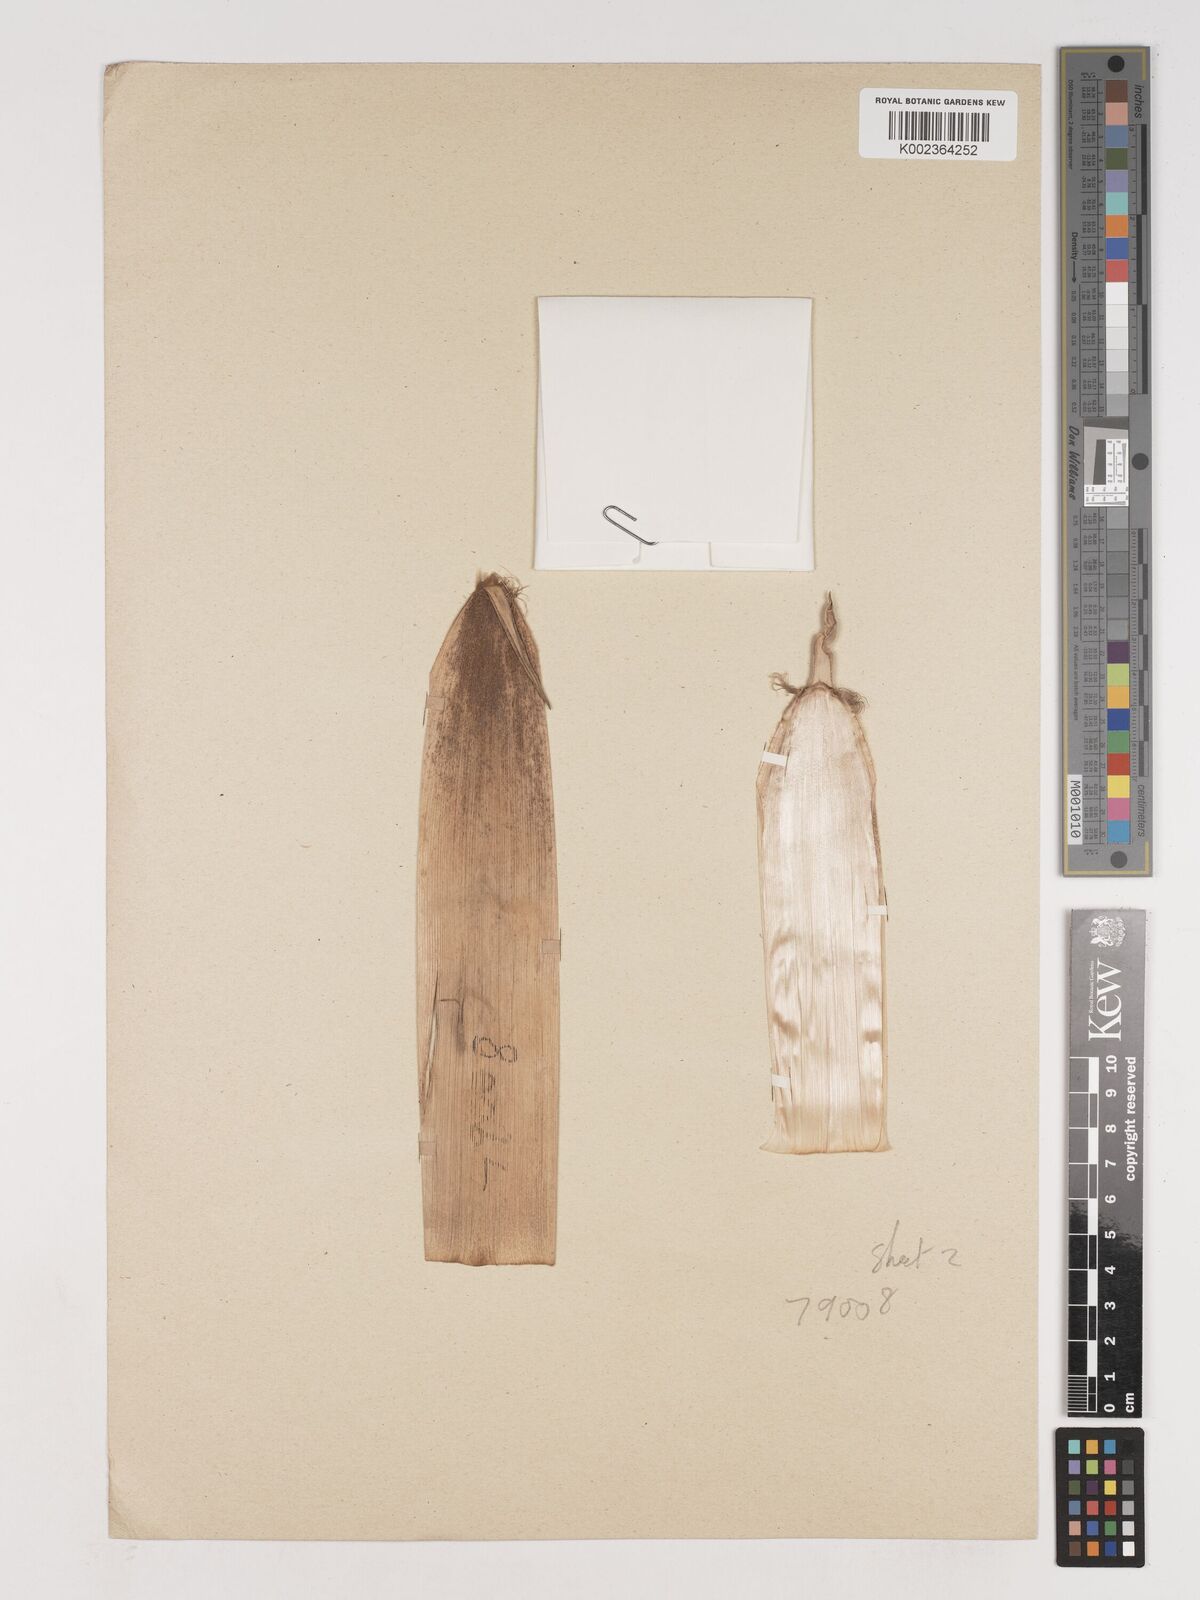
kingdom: Plantae
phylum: Tracheophyta
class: Liliopsida
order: Poales
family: Poaceae
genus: Phyllostachys
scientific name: Phyllostachys nigra
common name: Black bamboo
